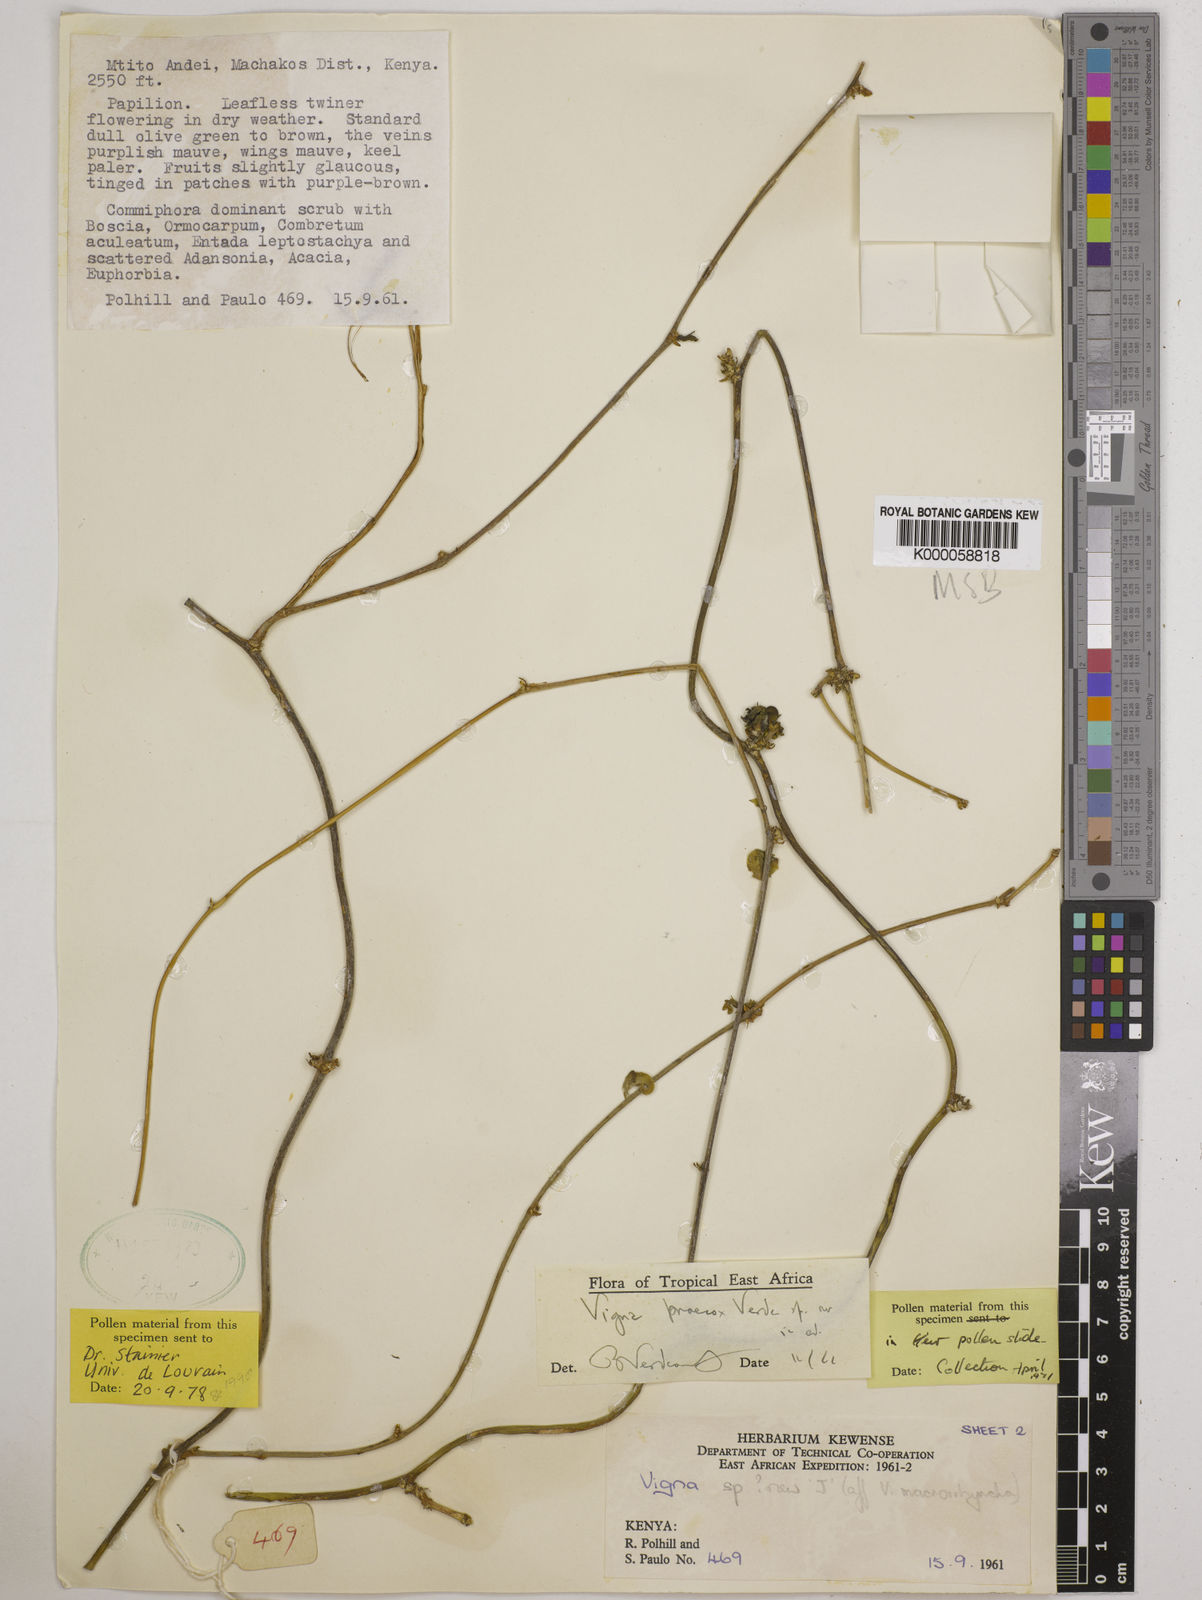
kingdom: Plantae
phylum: Tracheophyta
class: Magnoliopsida
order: Fabales
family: Fabaceae
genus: Wajira
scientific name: Wajira praecox
